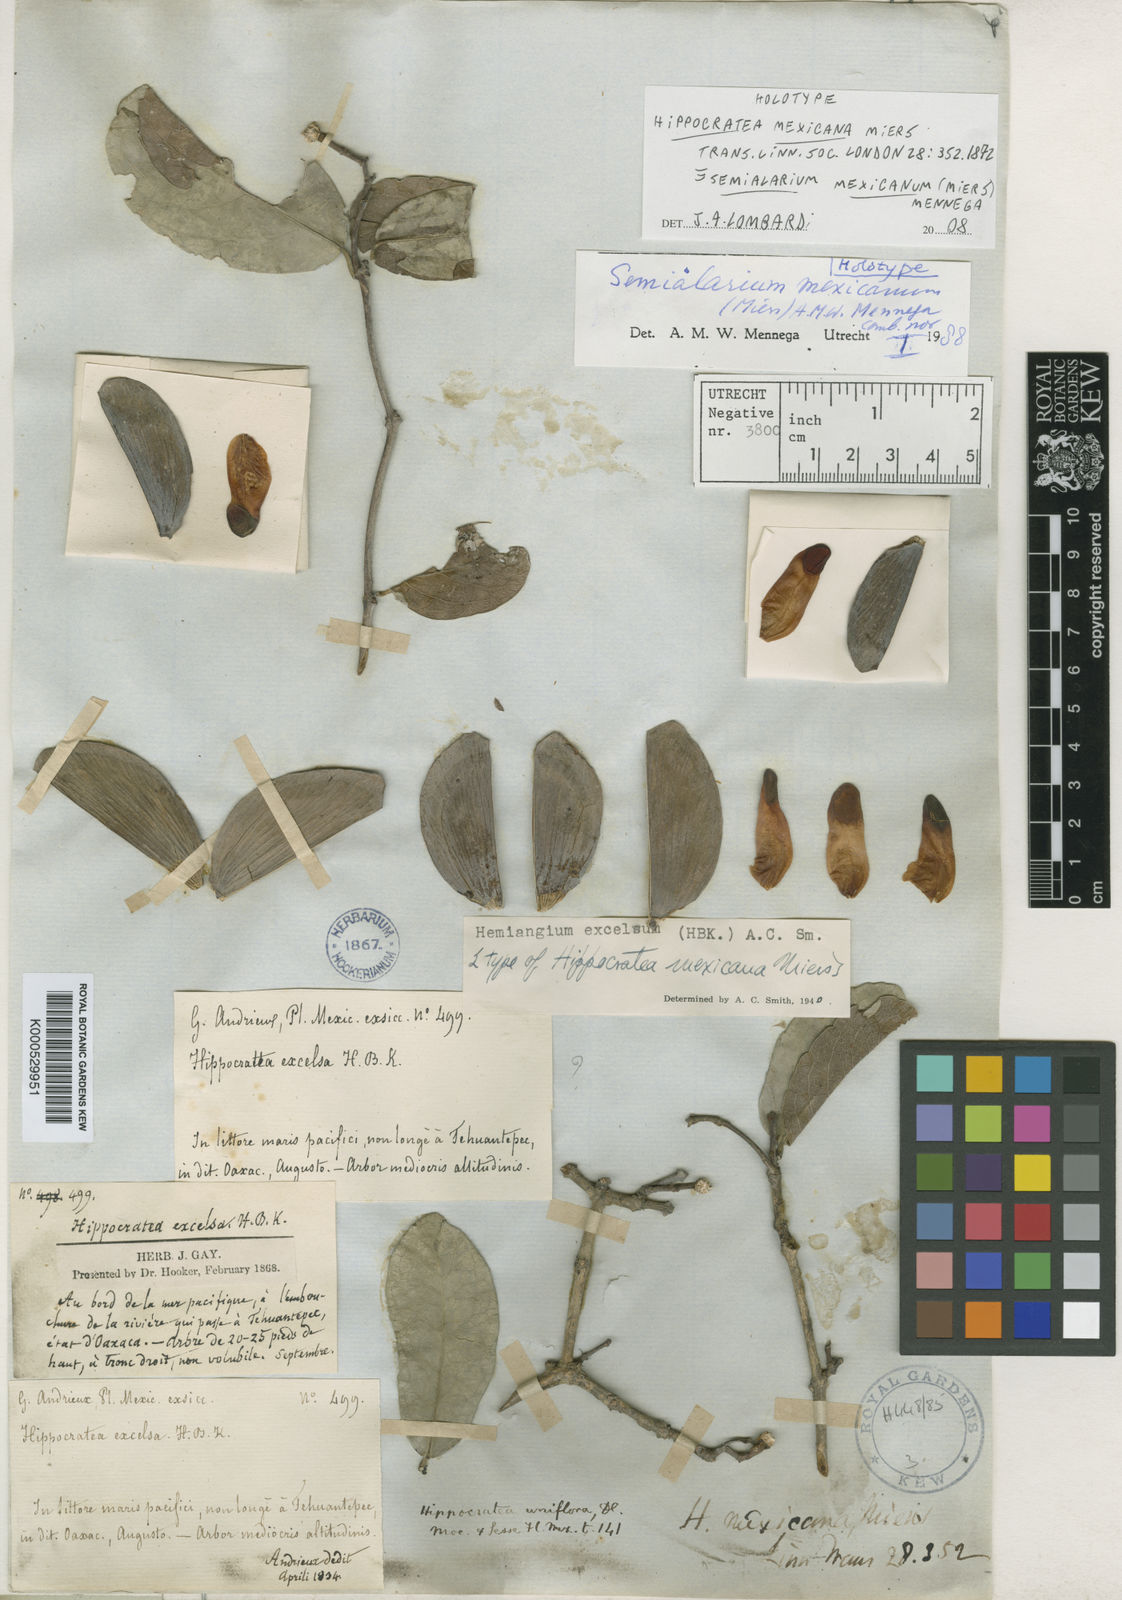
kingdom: Plantae
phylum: Tracheophyta
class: Magnoliopsida
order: Celastrales
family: Celastraceae
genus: Semialarium
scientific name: Semialarium mexicanum
